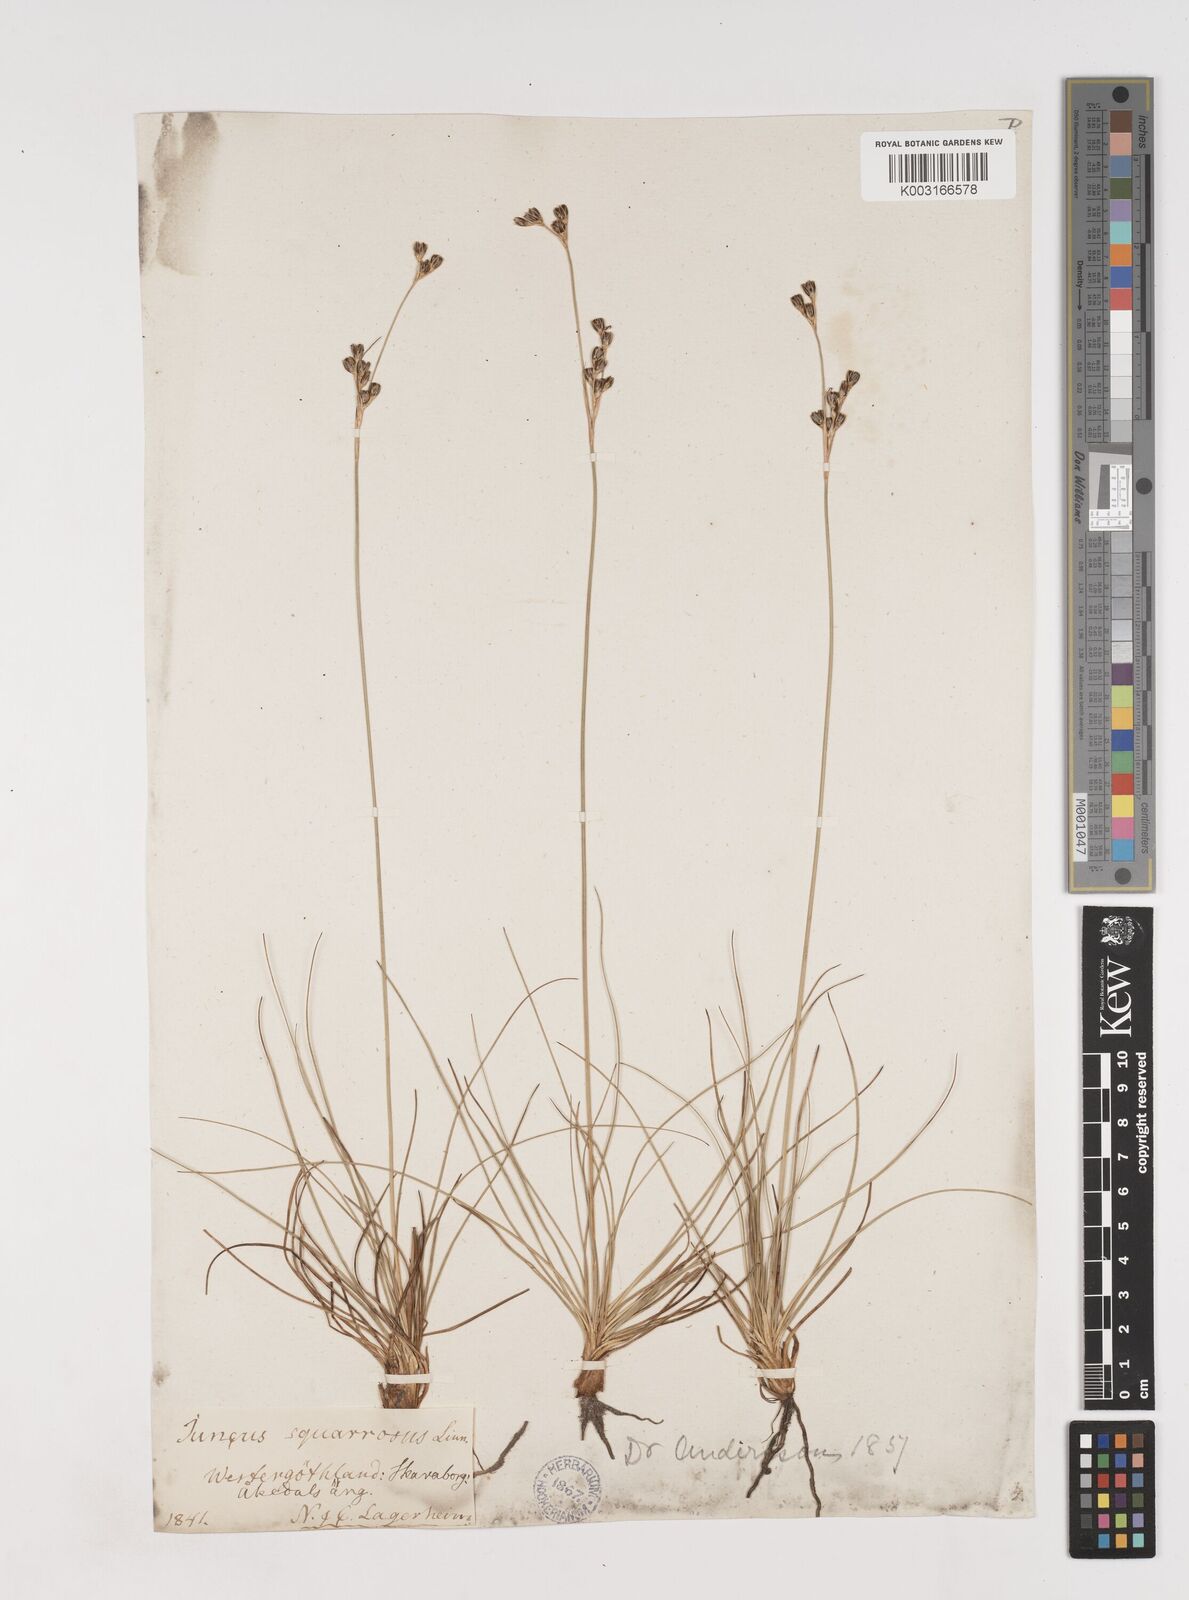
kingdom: Plantae
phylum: Tracheophyta
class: Liliopsida
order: Poales
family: Juncaceae
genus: Juncus
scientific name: Juncus squarrosus
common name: Heath rush
